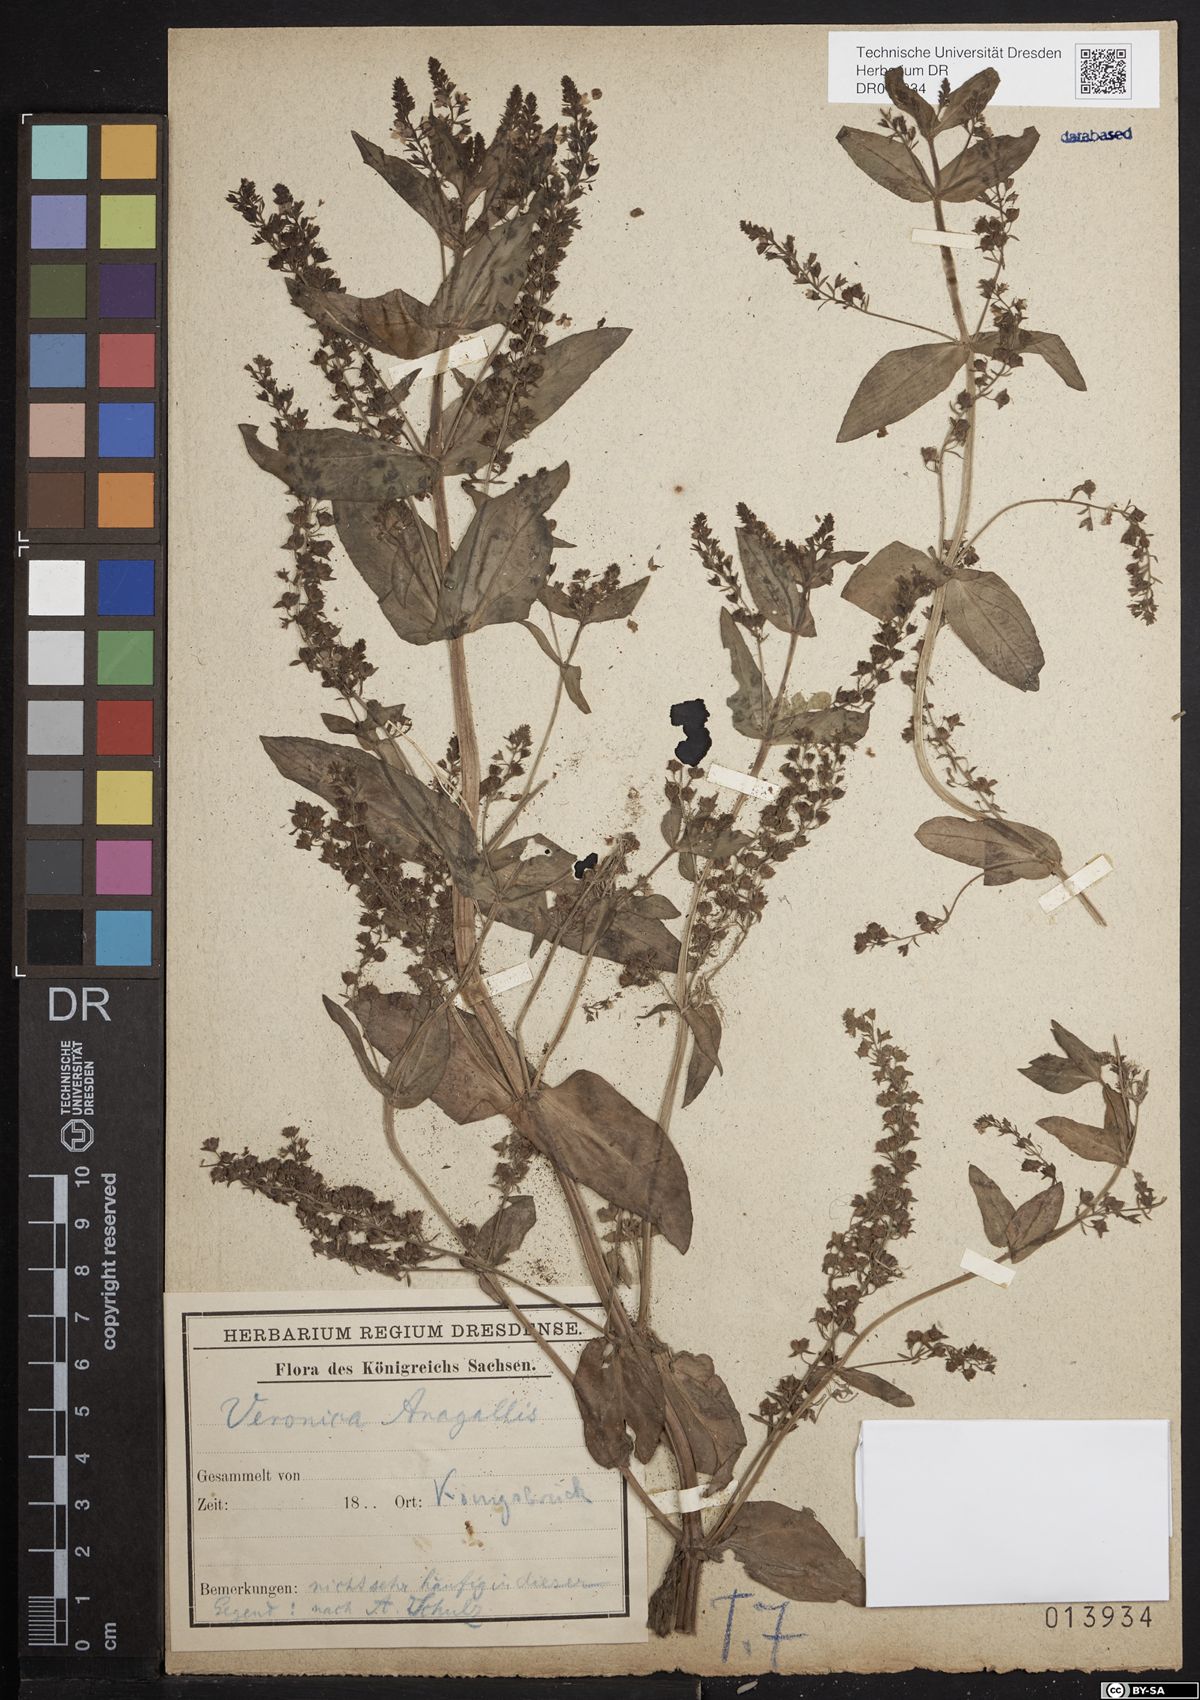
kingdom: Plantae
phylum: Tracheophyta
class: Magnoliopsida
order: Lamiales
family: Plantaginaceae
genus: Veronica
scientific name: Veronica anagallis-aquatica
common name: Water speedwell
